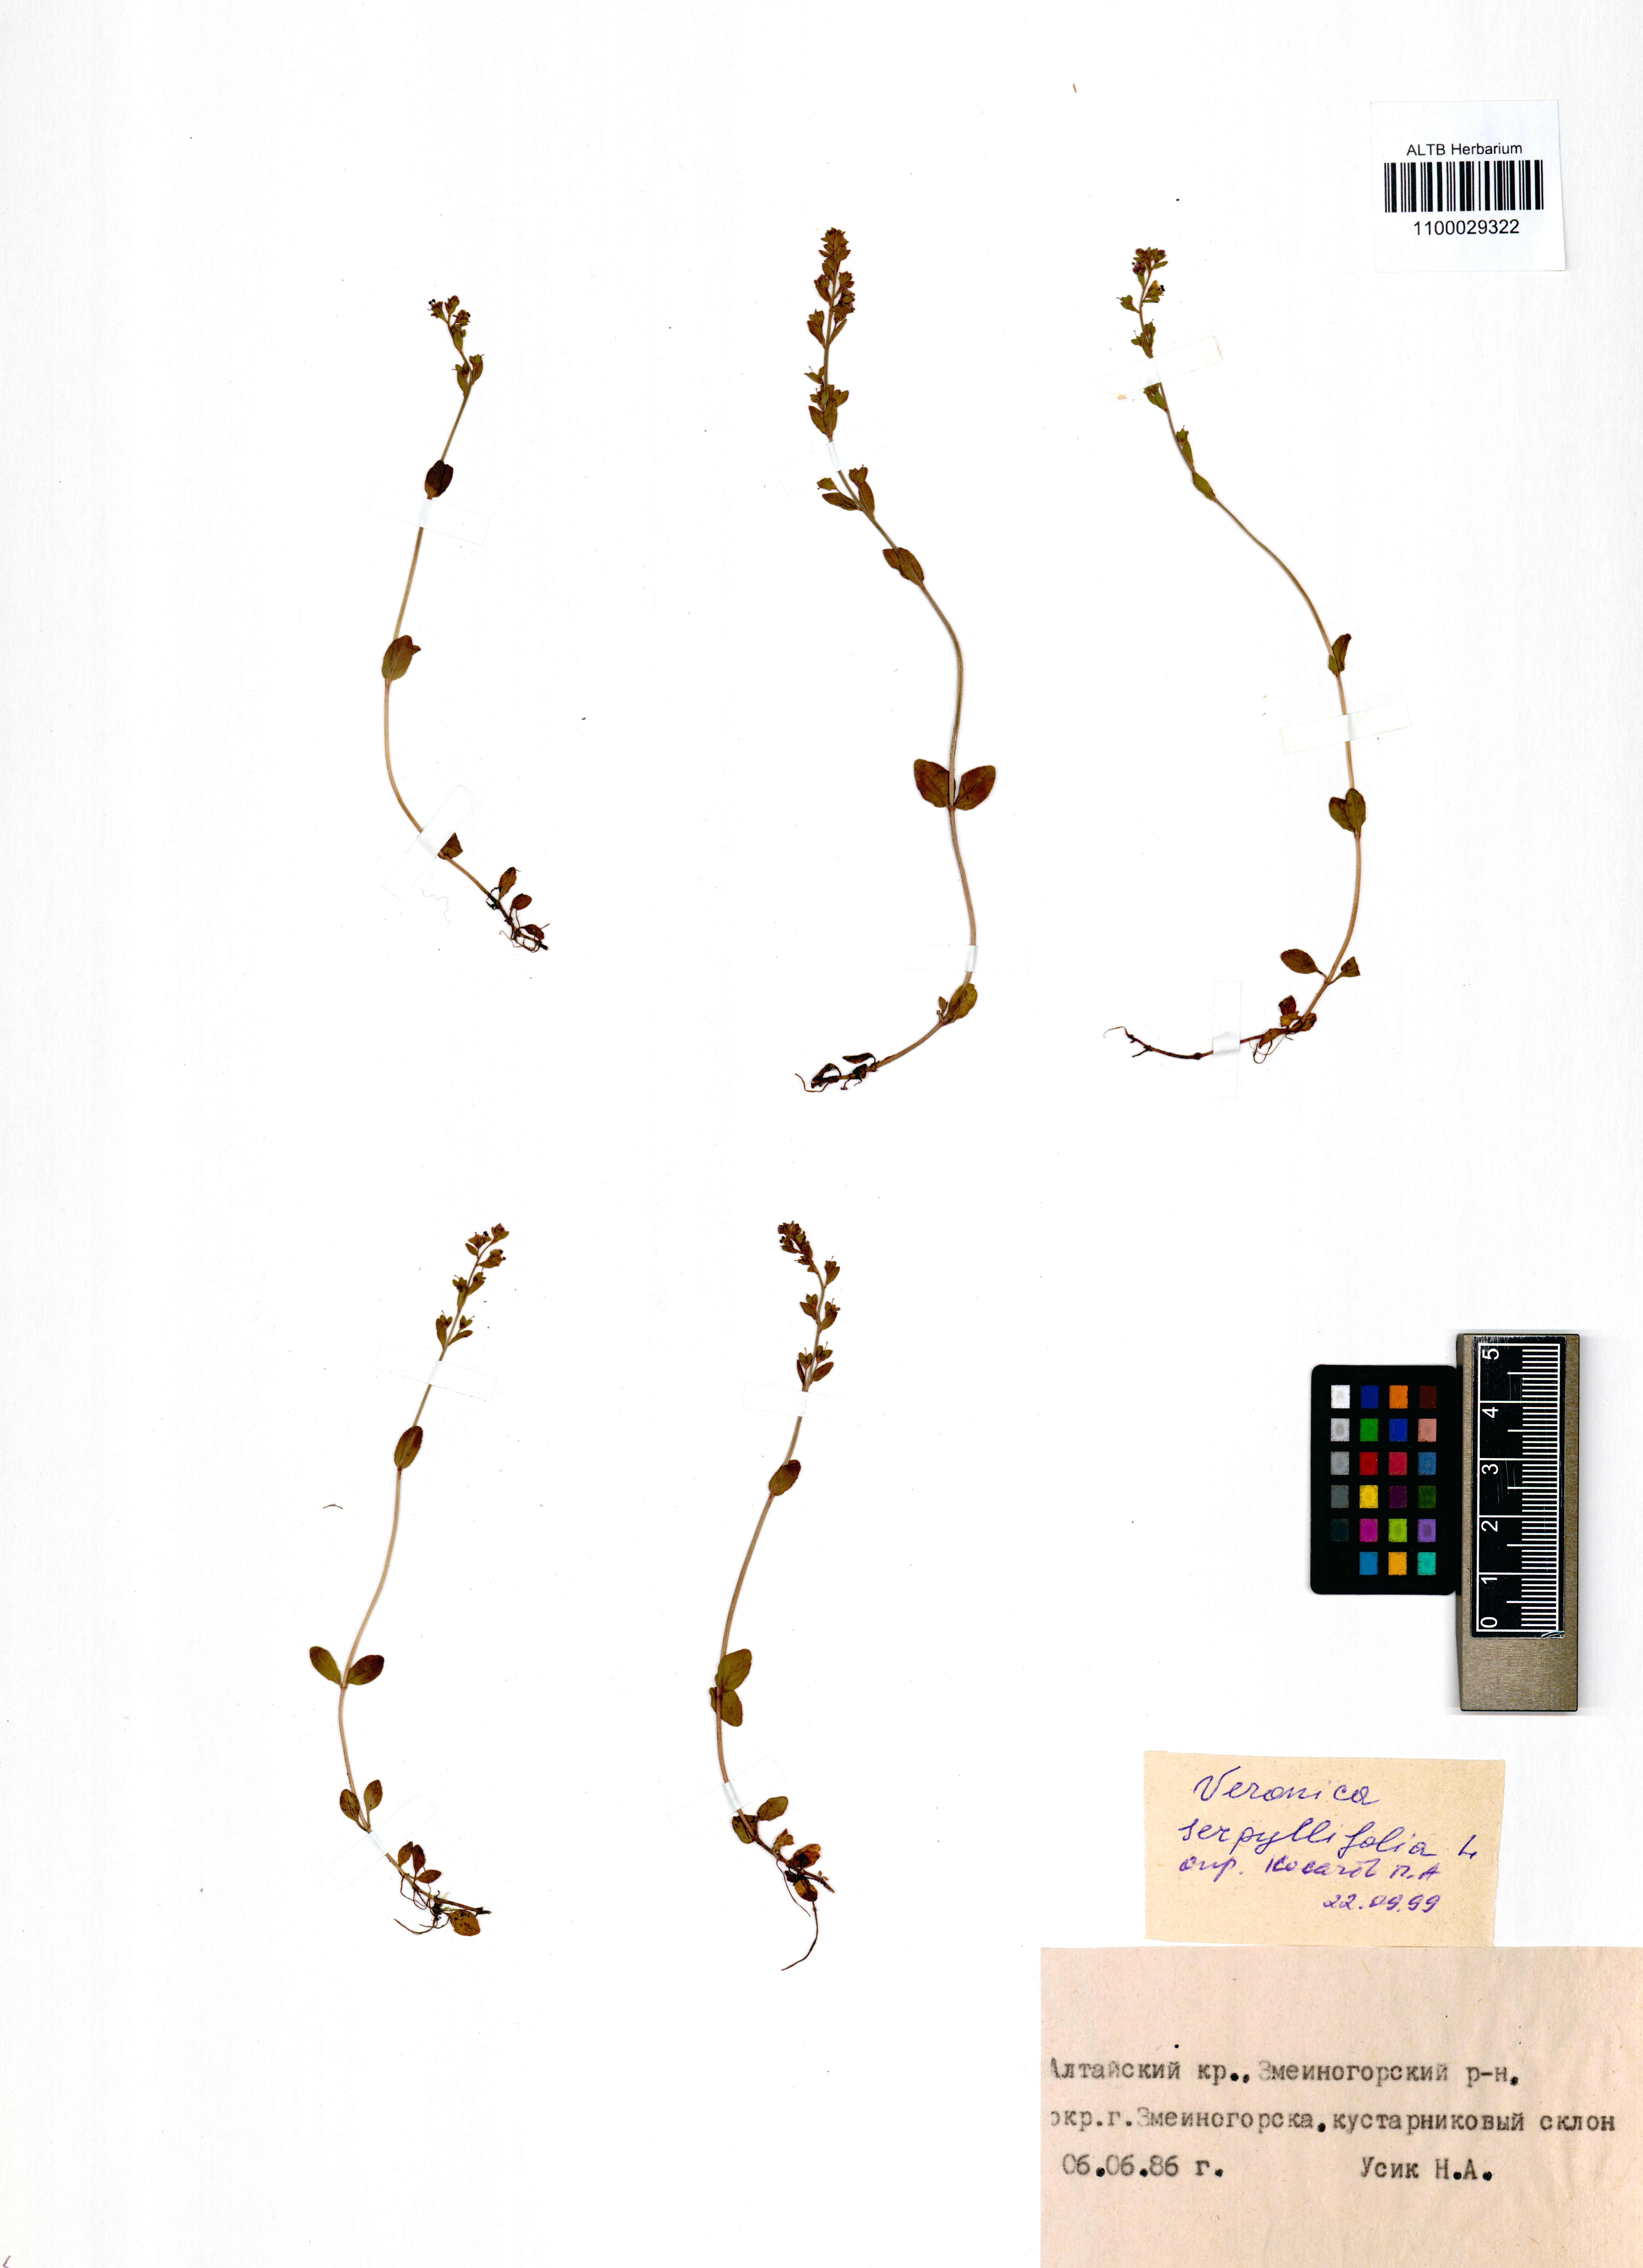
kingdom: Plantae
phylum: Tracheophyta
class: Magnoliopsida
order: Lamiales
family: Plantaginaceae
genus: Veronica
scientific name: Veronica serpyllifolia
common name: Thyme-leaved speedwell
